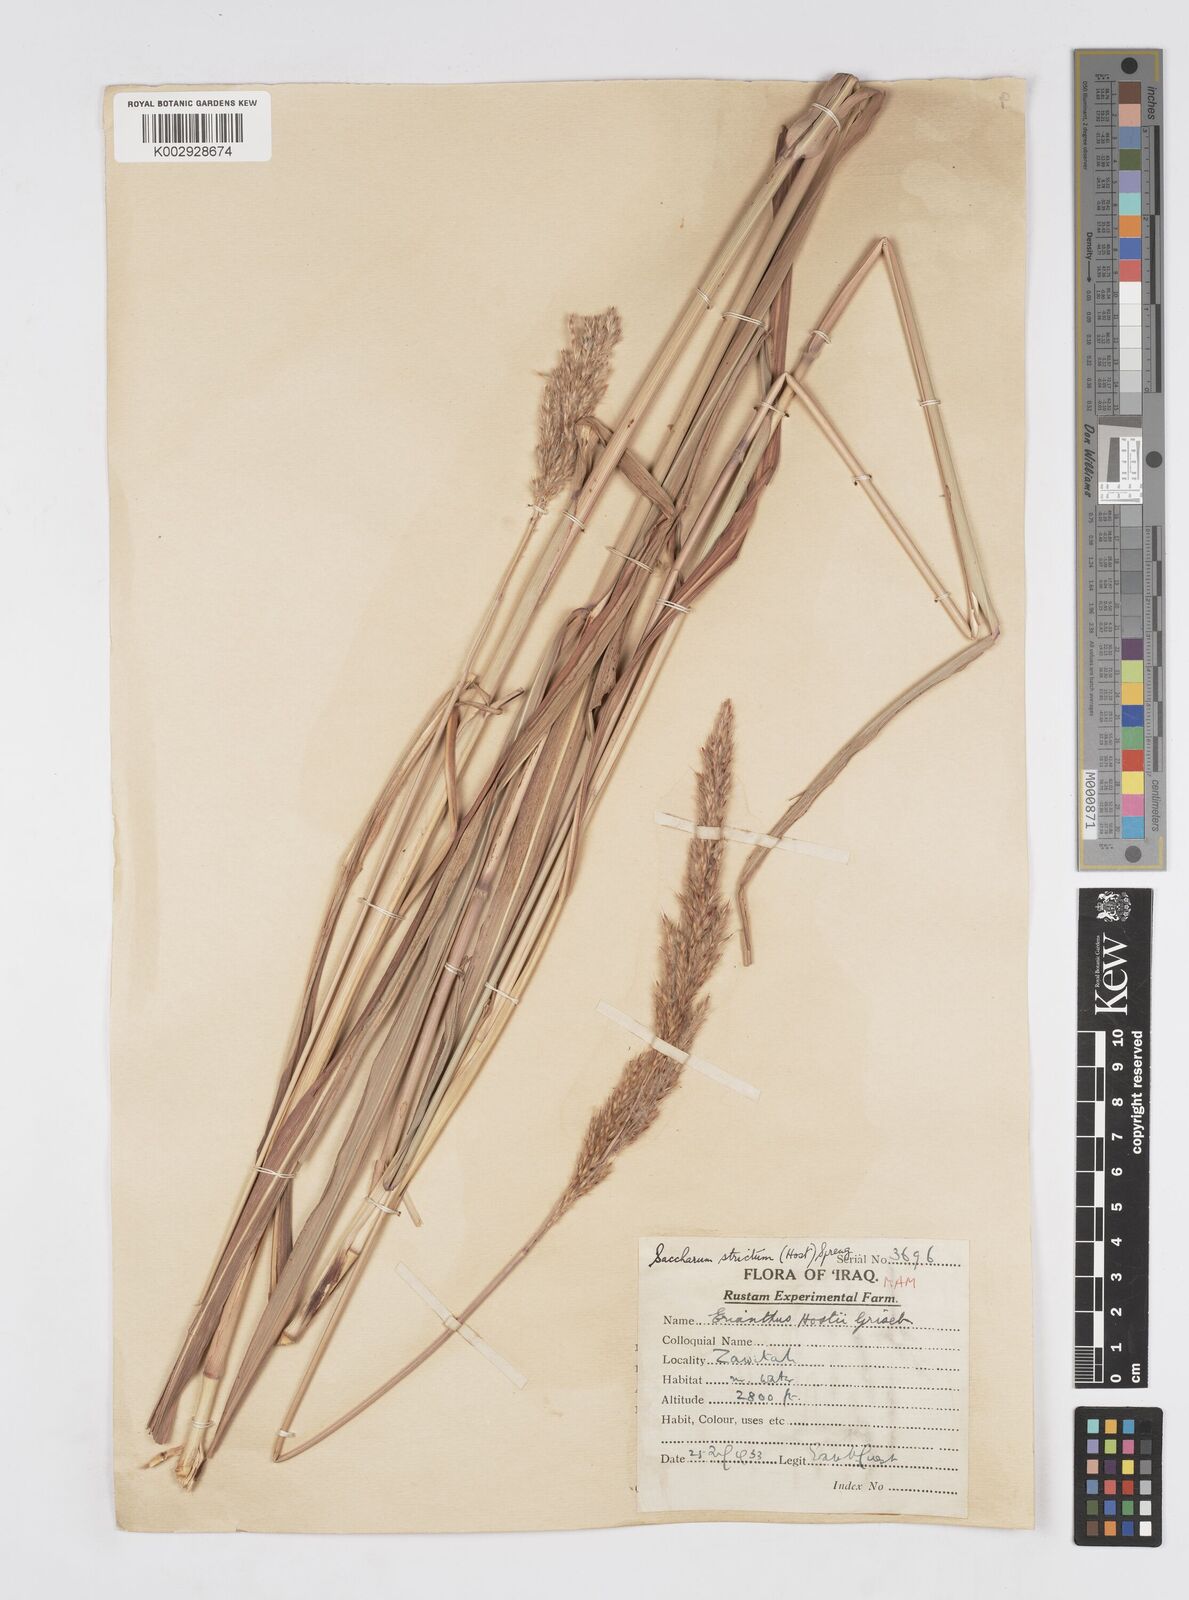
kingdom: Plantae
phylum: Tracheophyta
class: Liliopsida
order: Poales
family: Poaceae
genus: Tripidium
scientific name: Tripidium strictum
